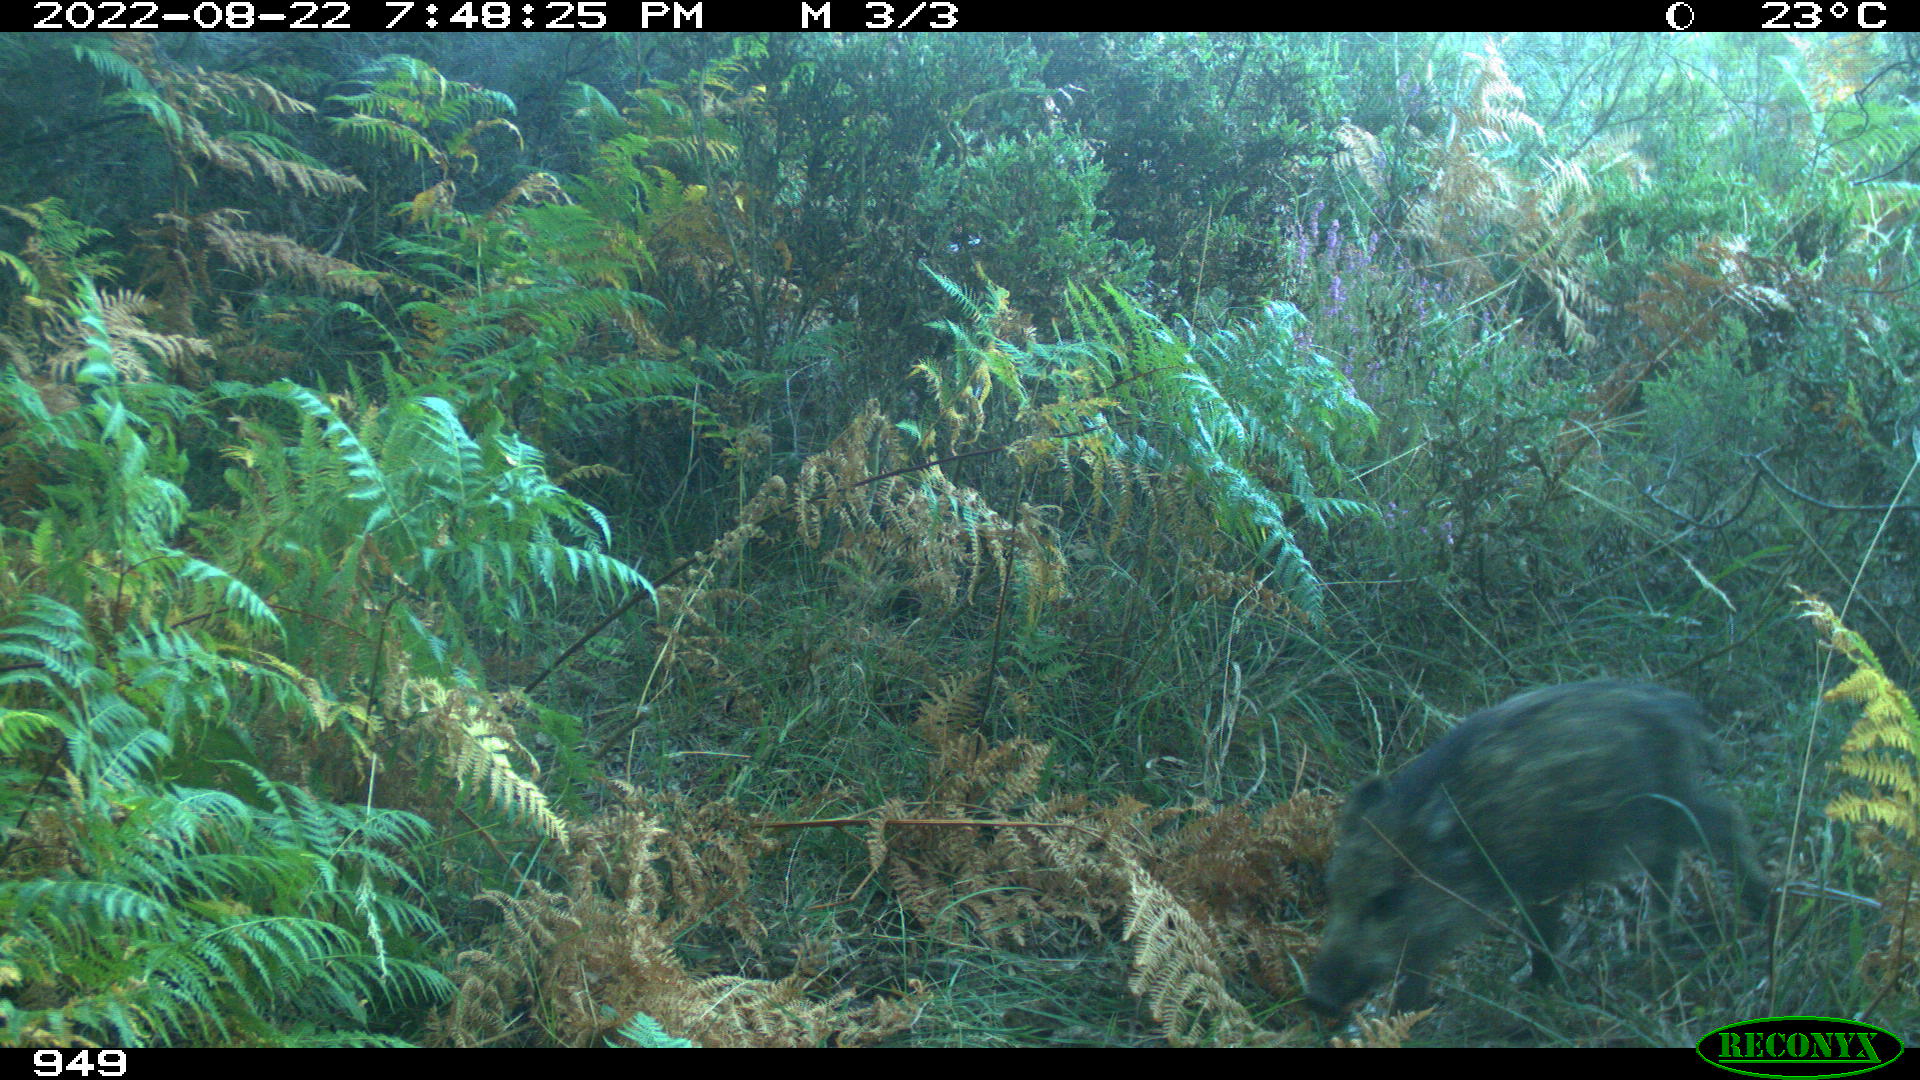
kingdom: Animalia
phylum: Chordata
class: Mammalia
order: Artiodactyla
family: Suidae
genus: Sus
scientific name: Sus scrofa
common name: Wild boar
